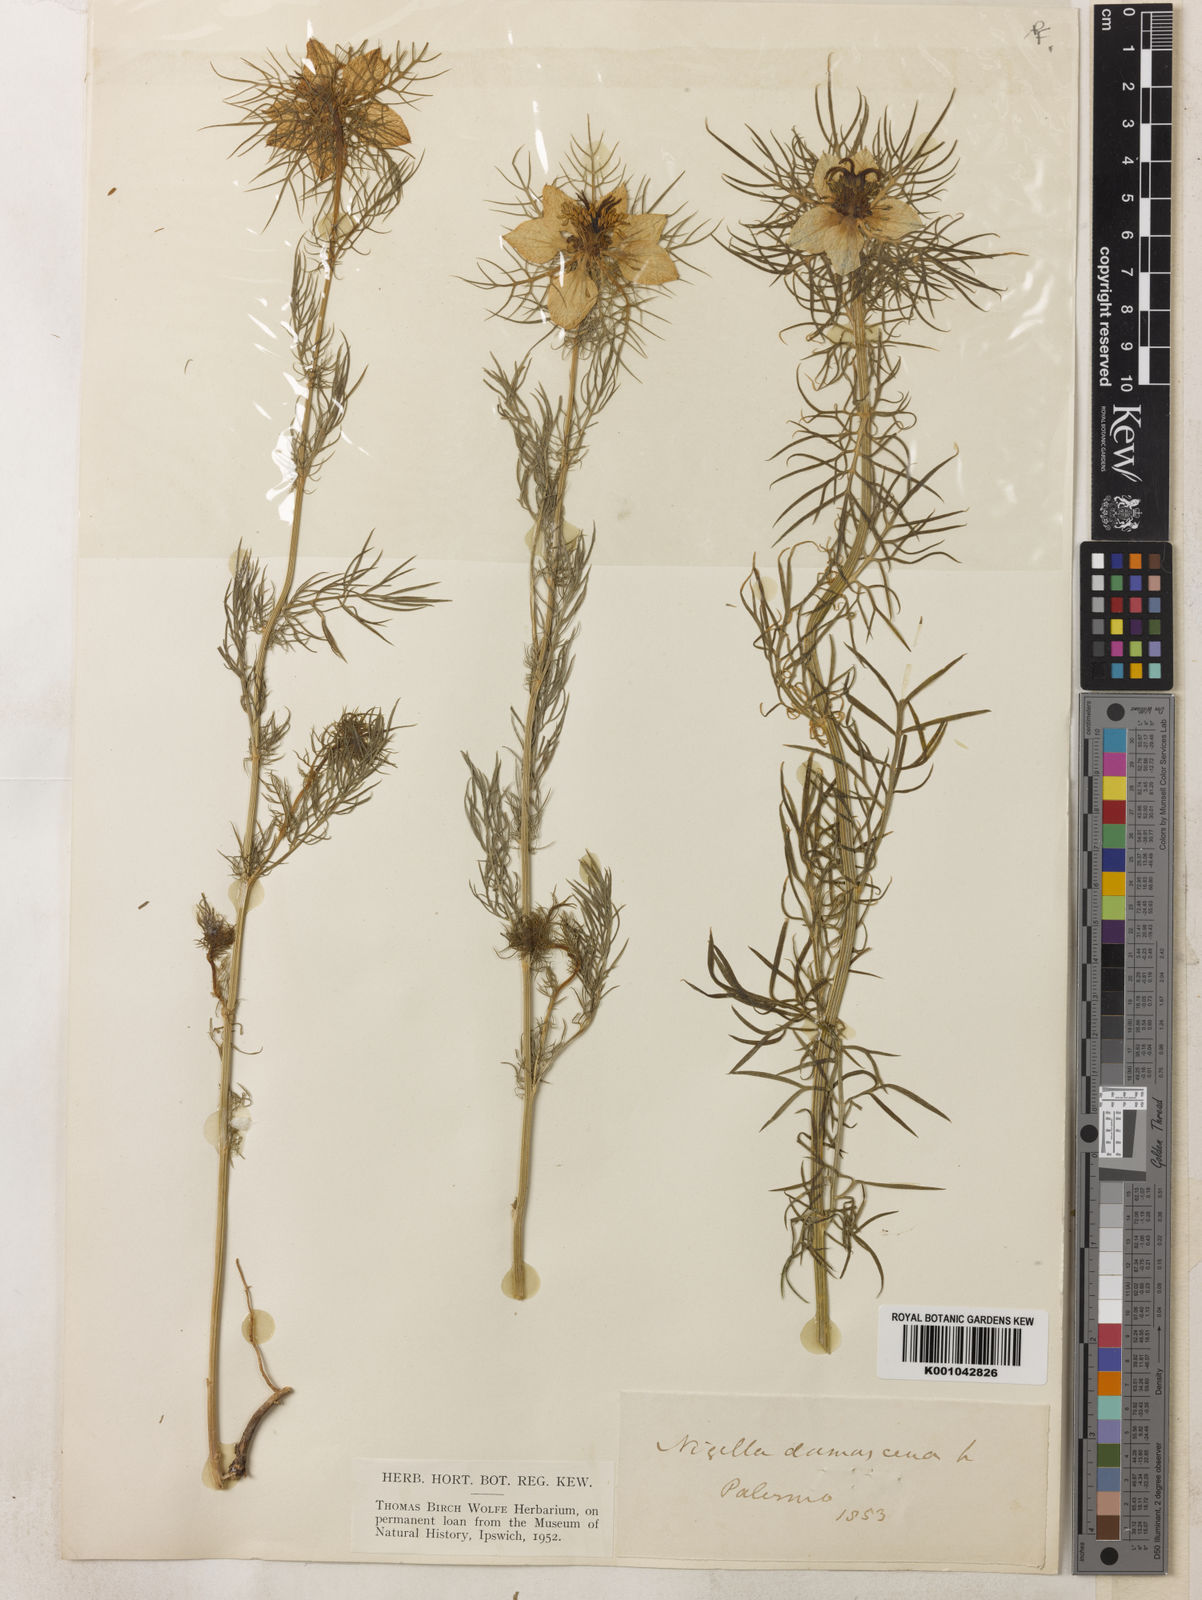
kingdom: Plantae
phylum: Tracheophyta
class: Magnoliopsida
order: Ranunculales
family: Ranunculaceae
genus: Nigella
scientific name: Nigella damascena
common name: Love-in-a-mist
